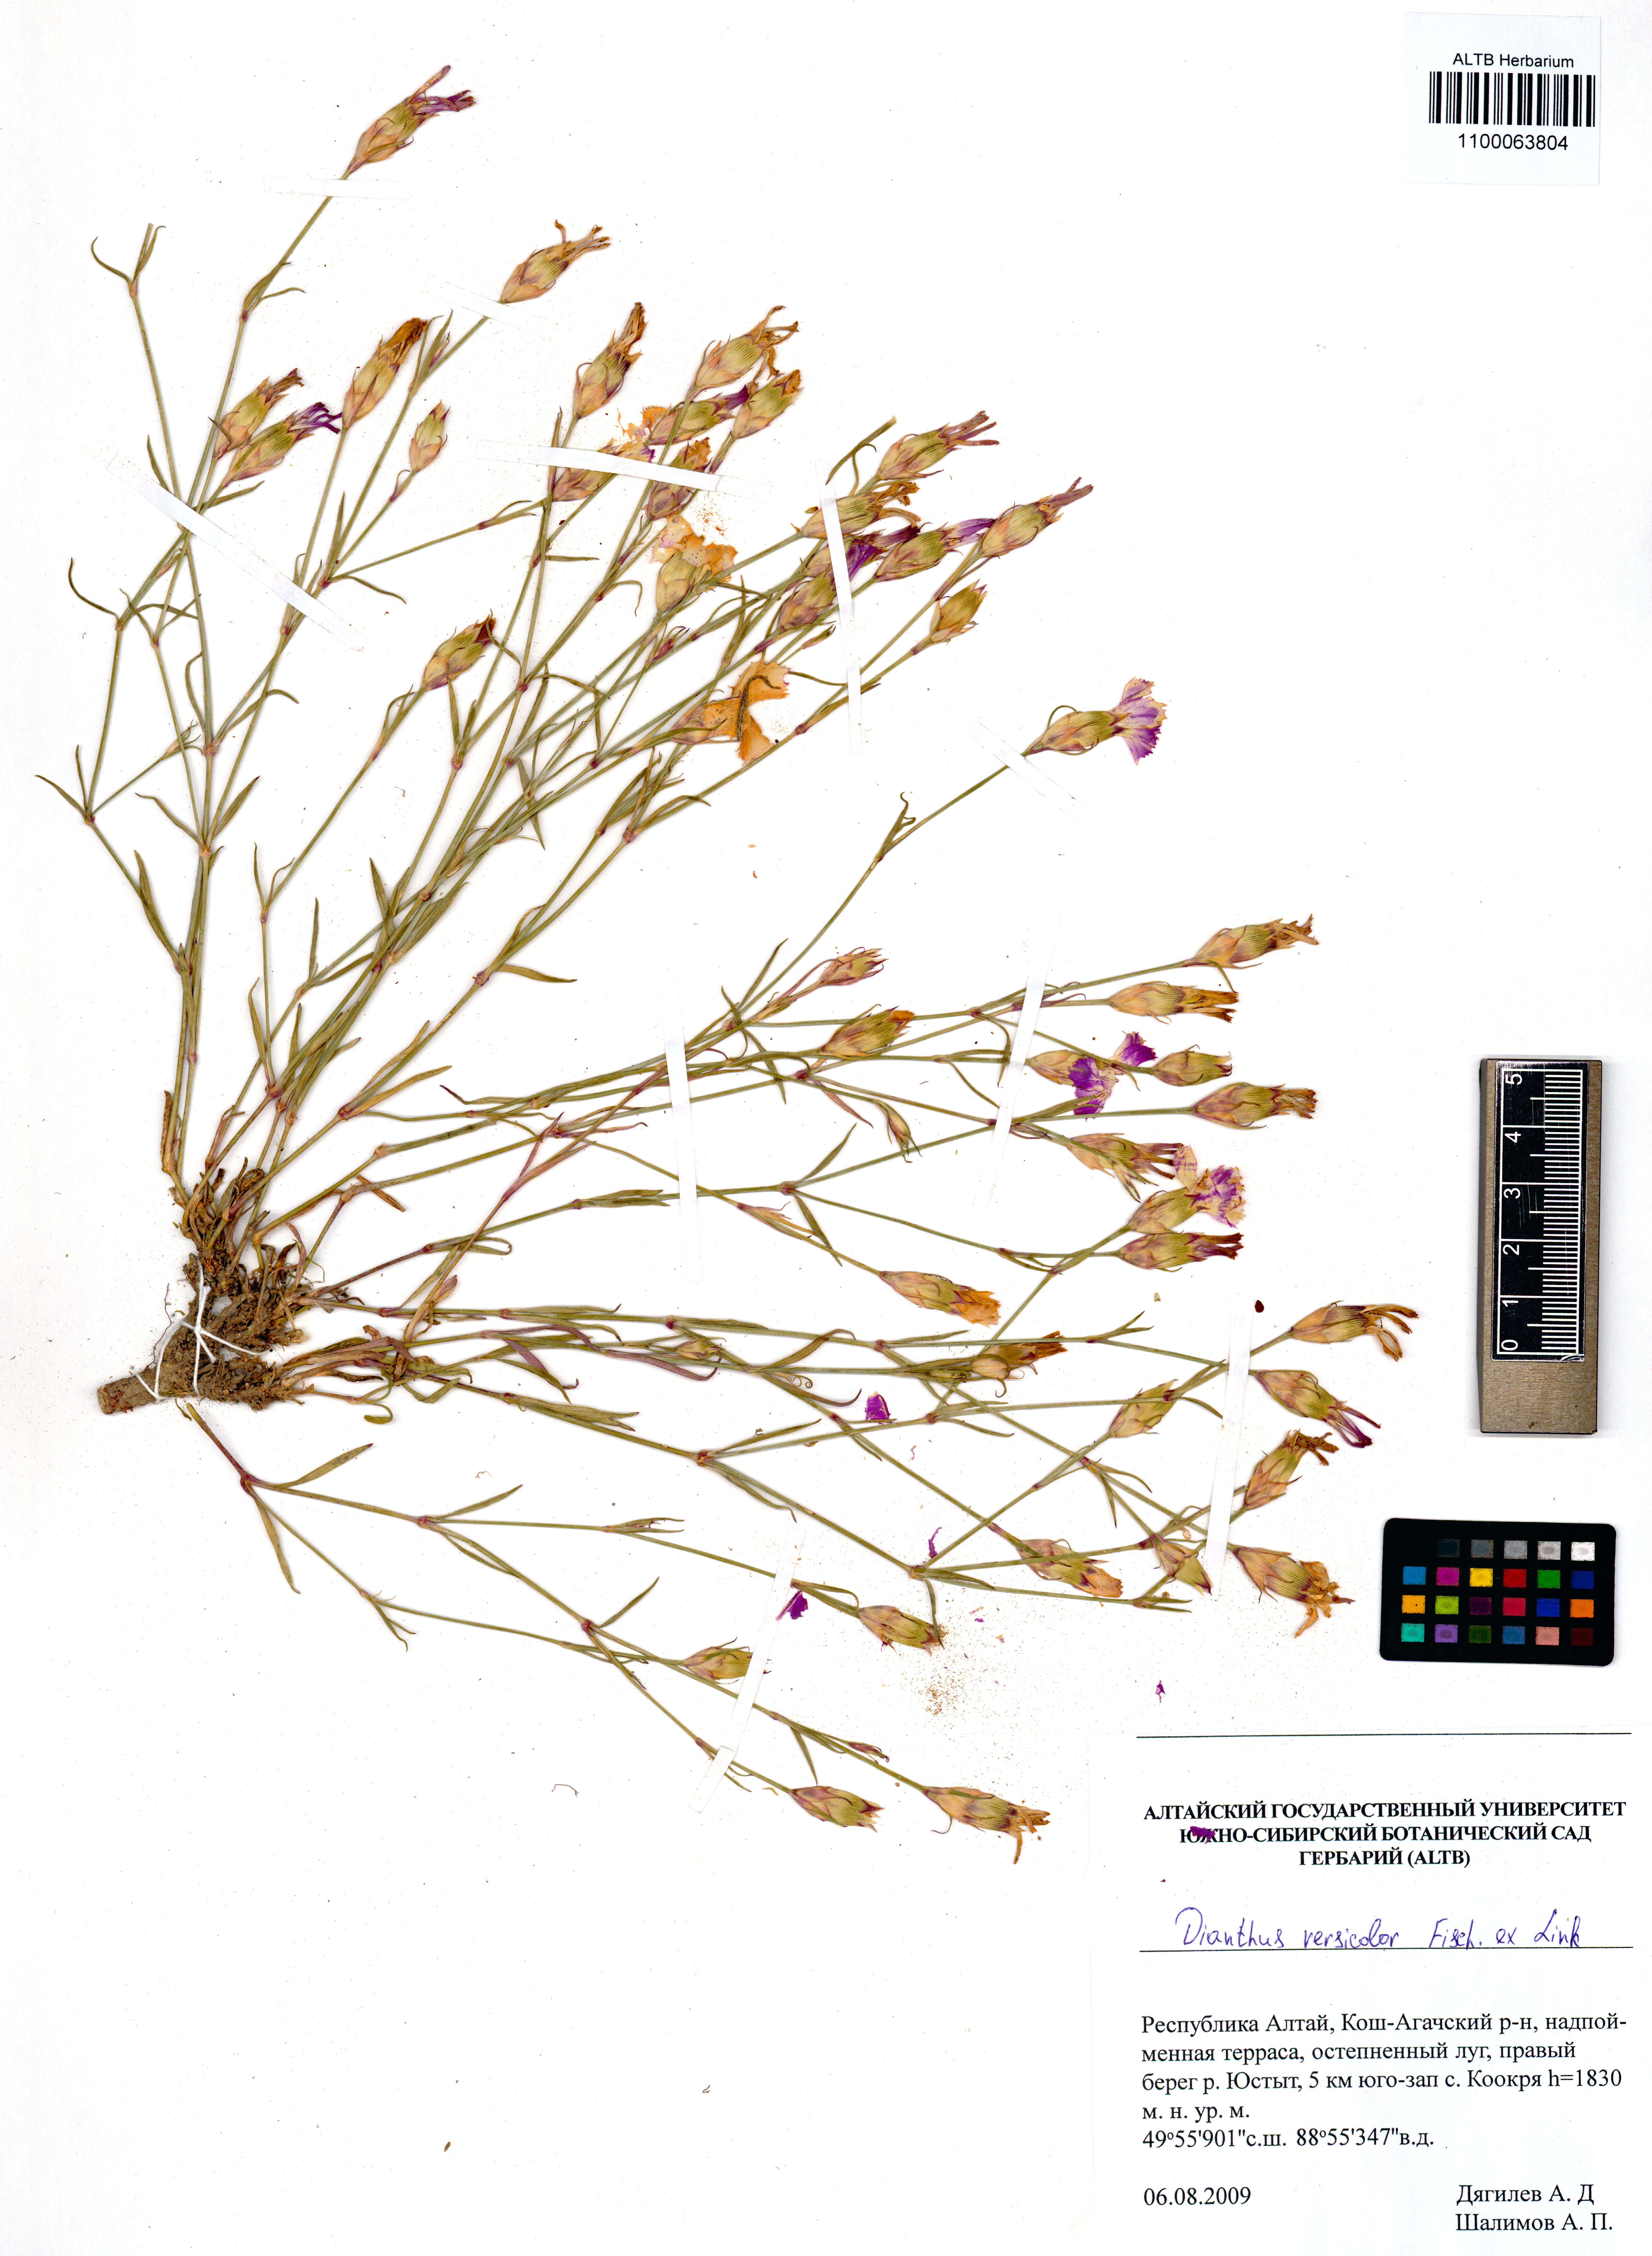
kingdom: Plantae
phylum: Tracheophyta
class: Magnoliopsida
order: Caryophyllales
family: Caryophyllaceae
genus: Dianthus
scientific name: Dianthus chinensis
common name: Rainbow pink
